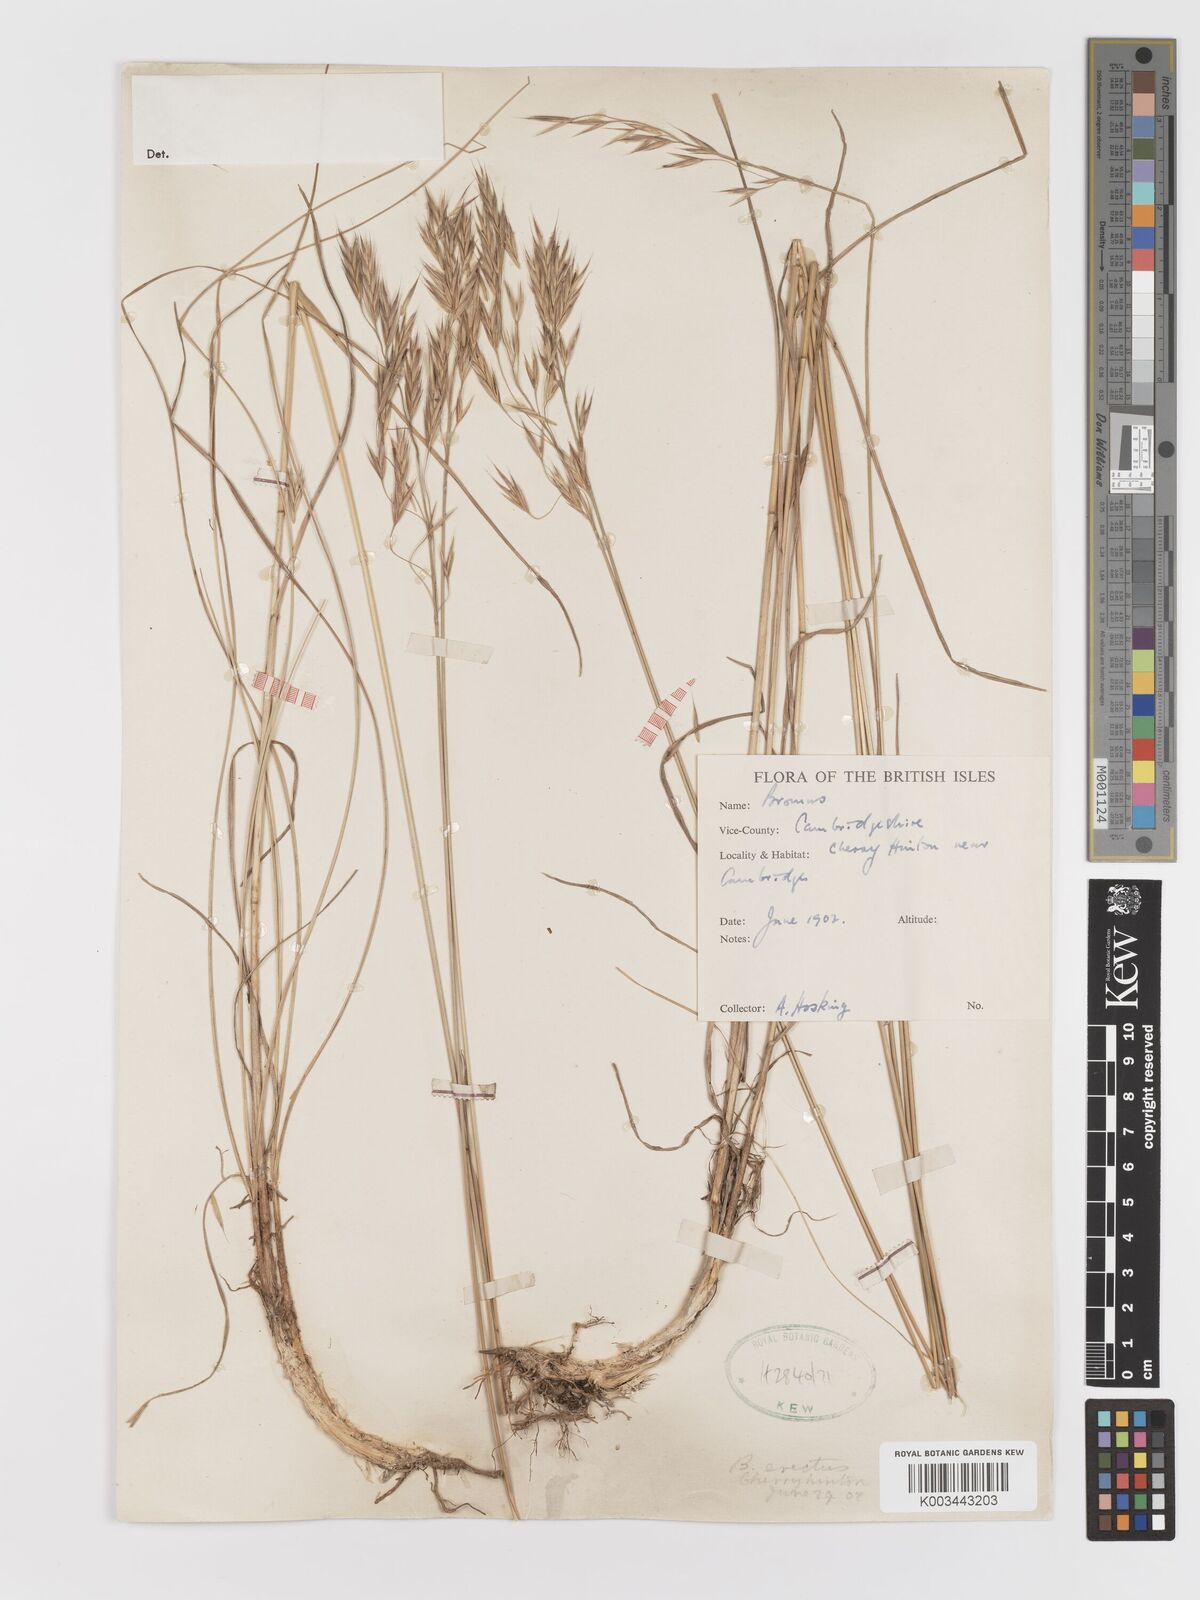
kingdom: Plantae
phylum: Tracheophyta
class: Liliopsida
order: Poales
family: Poaceae
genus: Bromus
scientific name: Bromus
